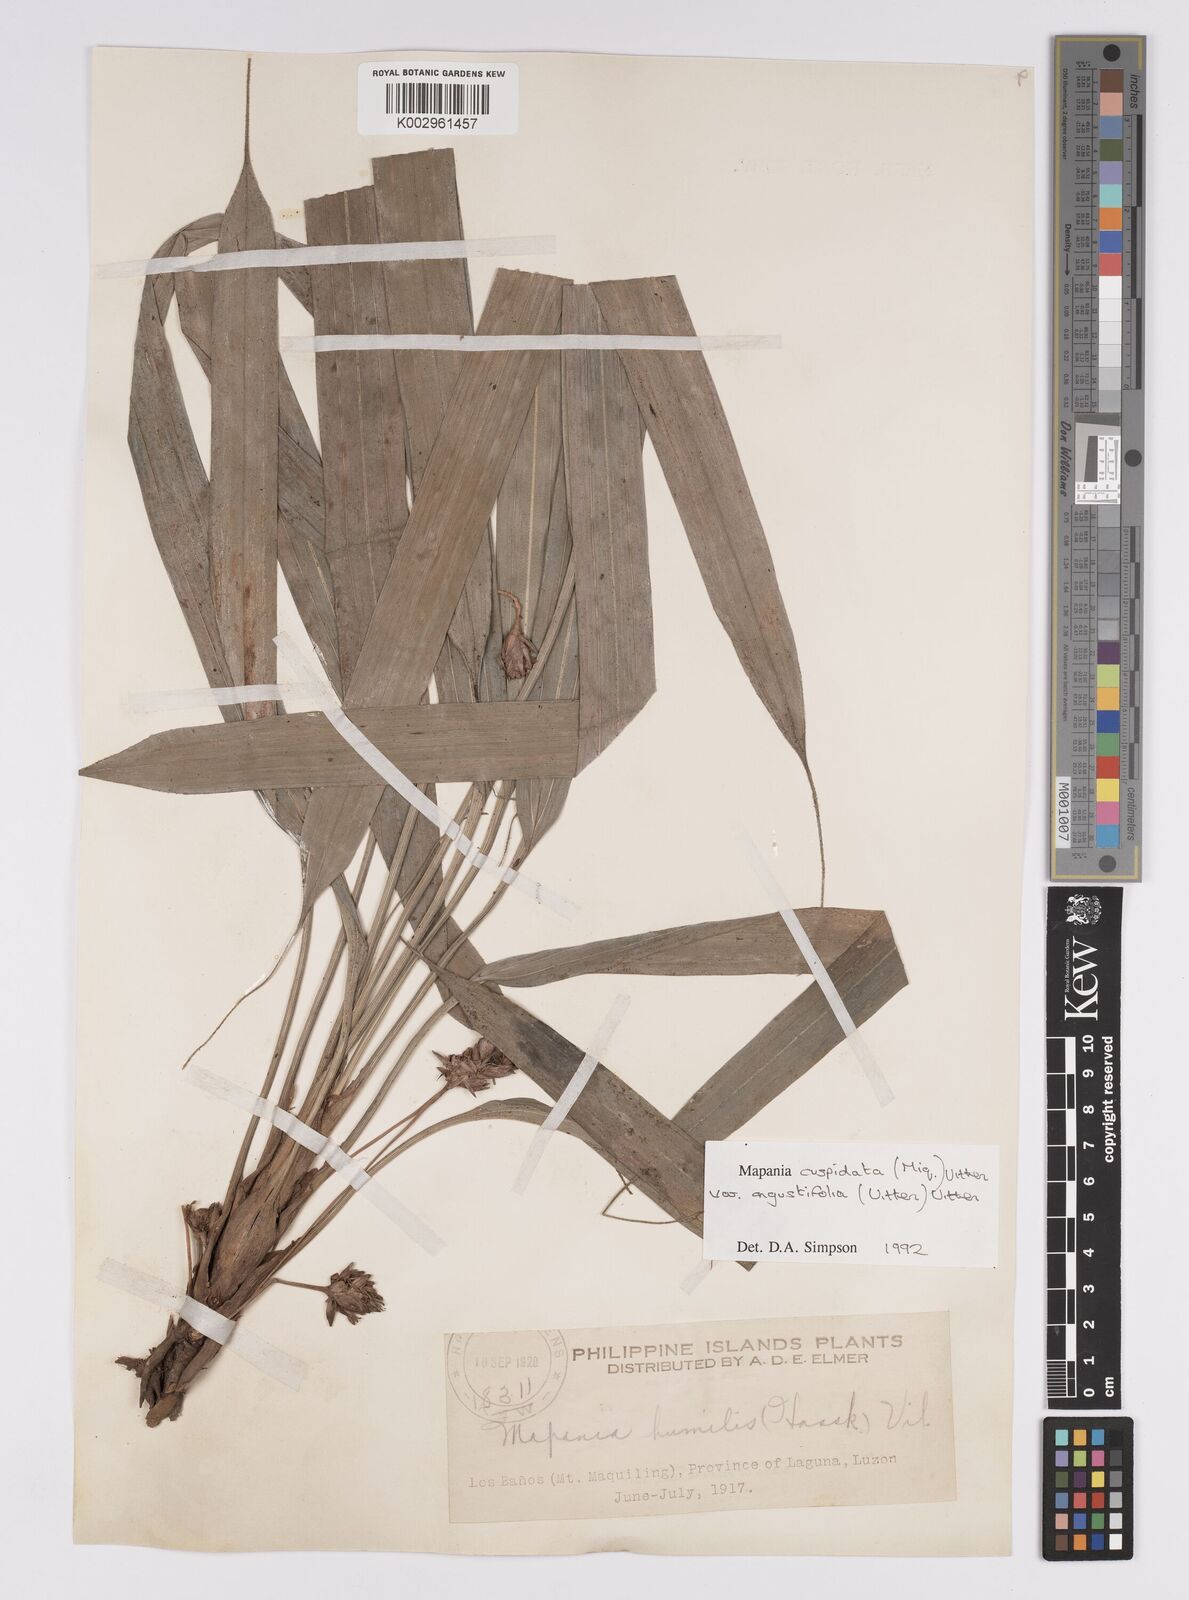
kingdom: Plantae
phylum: Tracheophyta
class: Liliopsida
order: Poales
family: Cyperaceae
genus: Mapania
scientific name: Mapania cuspidata
